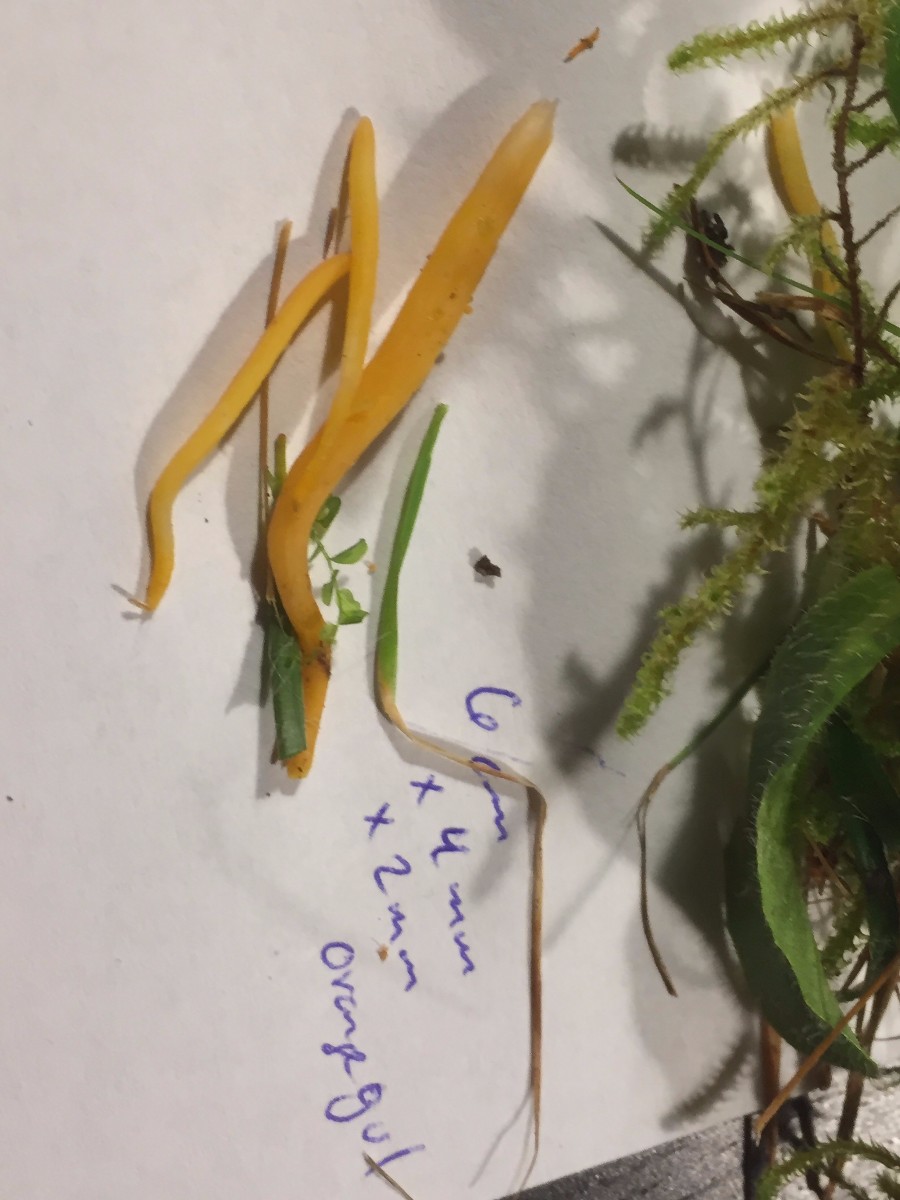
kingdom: Fungi
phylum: Basidiomycota
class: Agaricomycetes
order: Agaricales
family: Clavariaceae
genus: Clavulinopsis
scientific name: Clavulinopsis laeticolor
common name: flamme-køllesvamp
